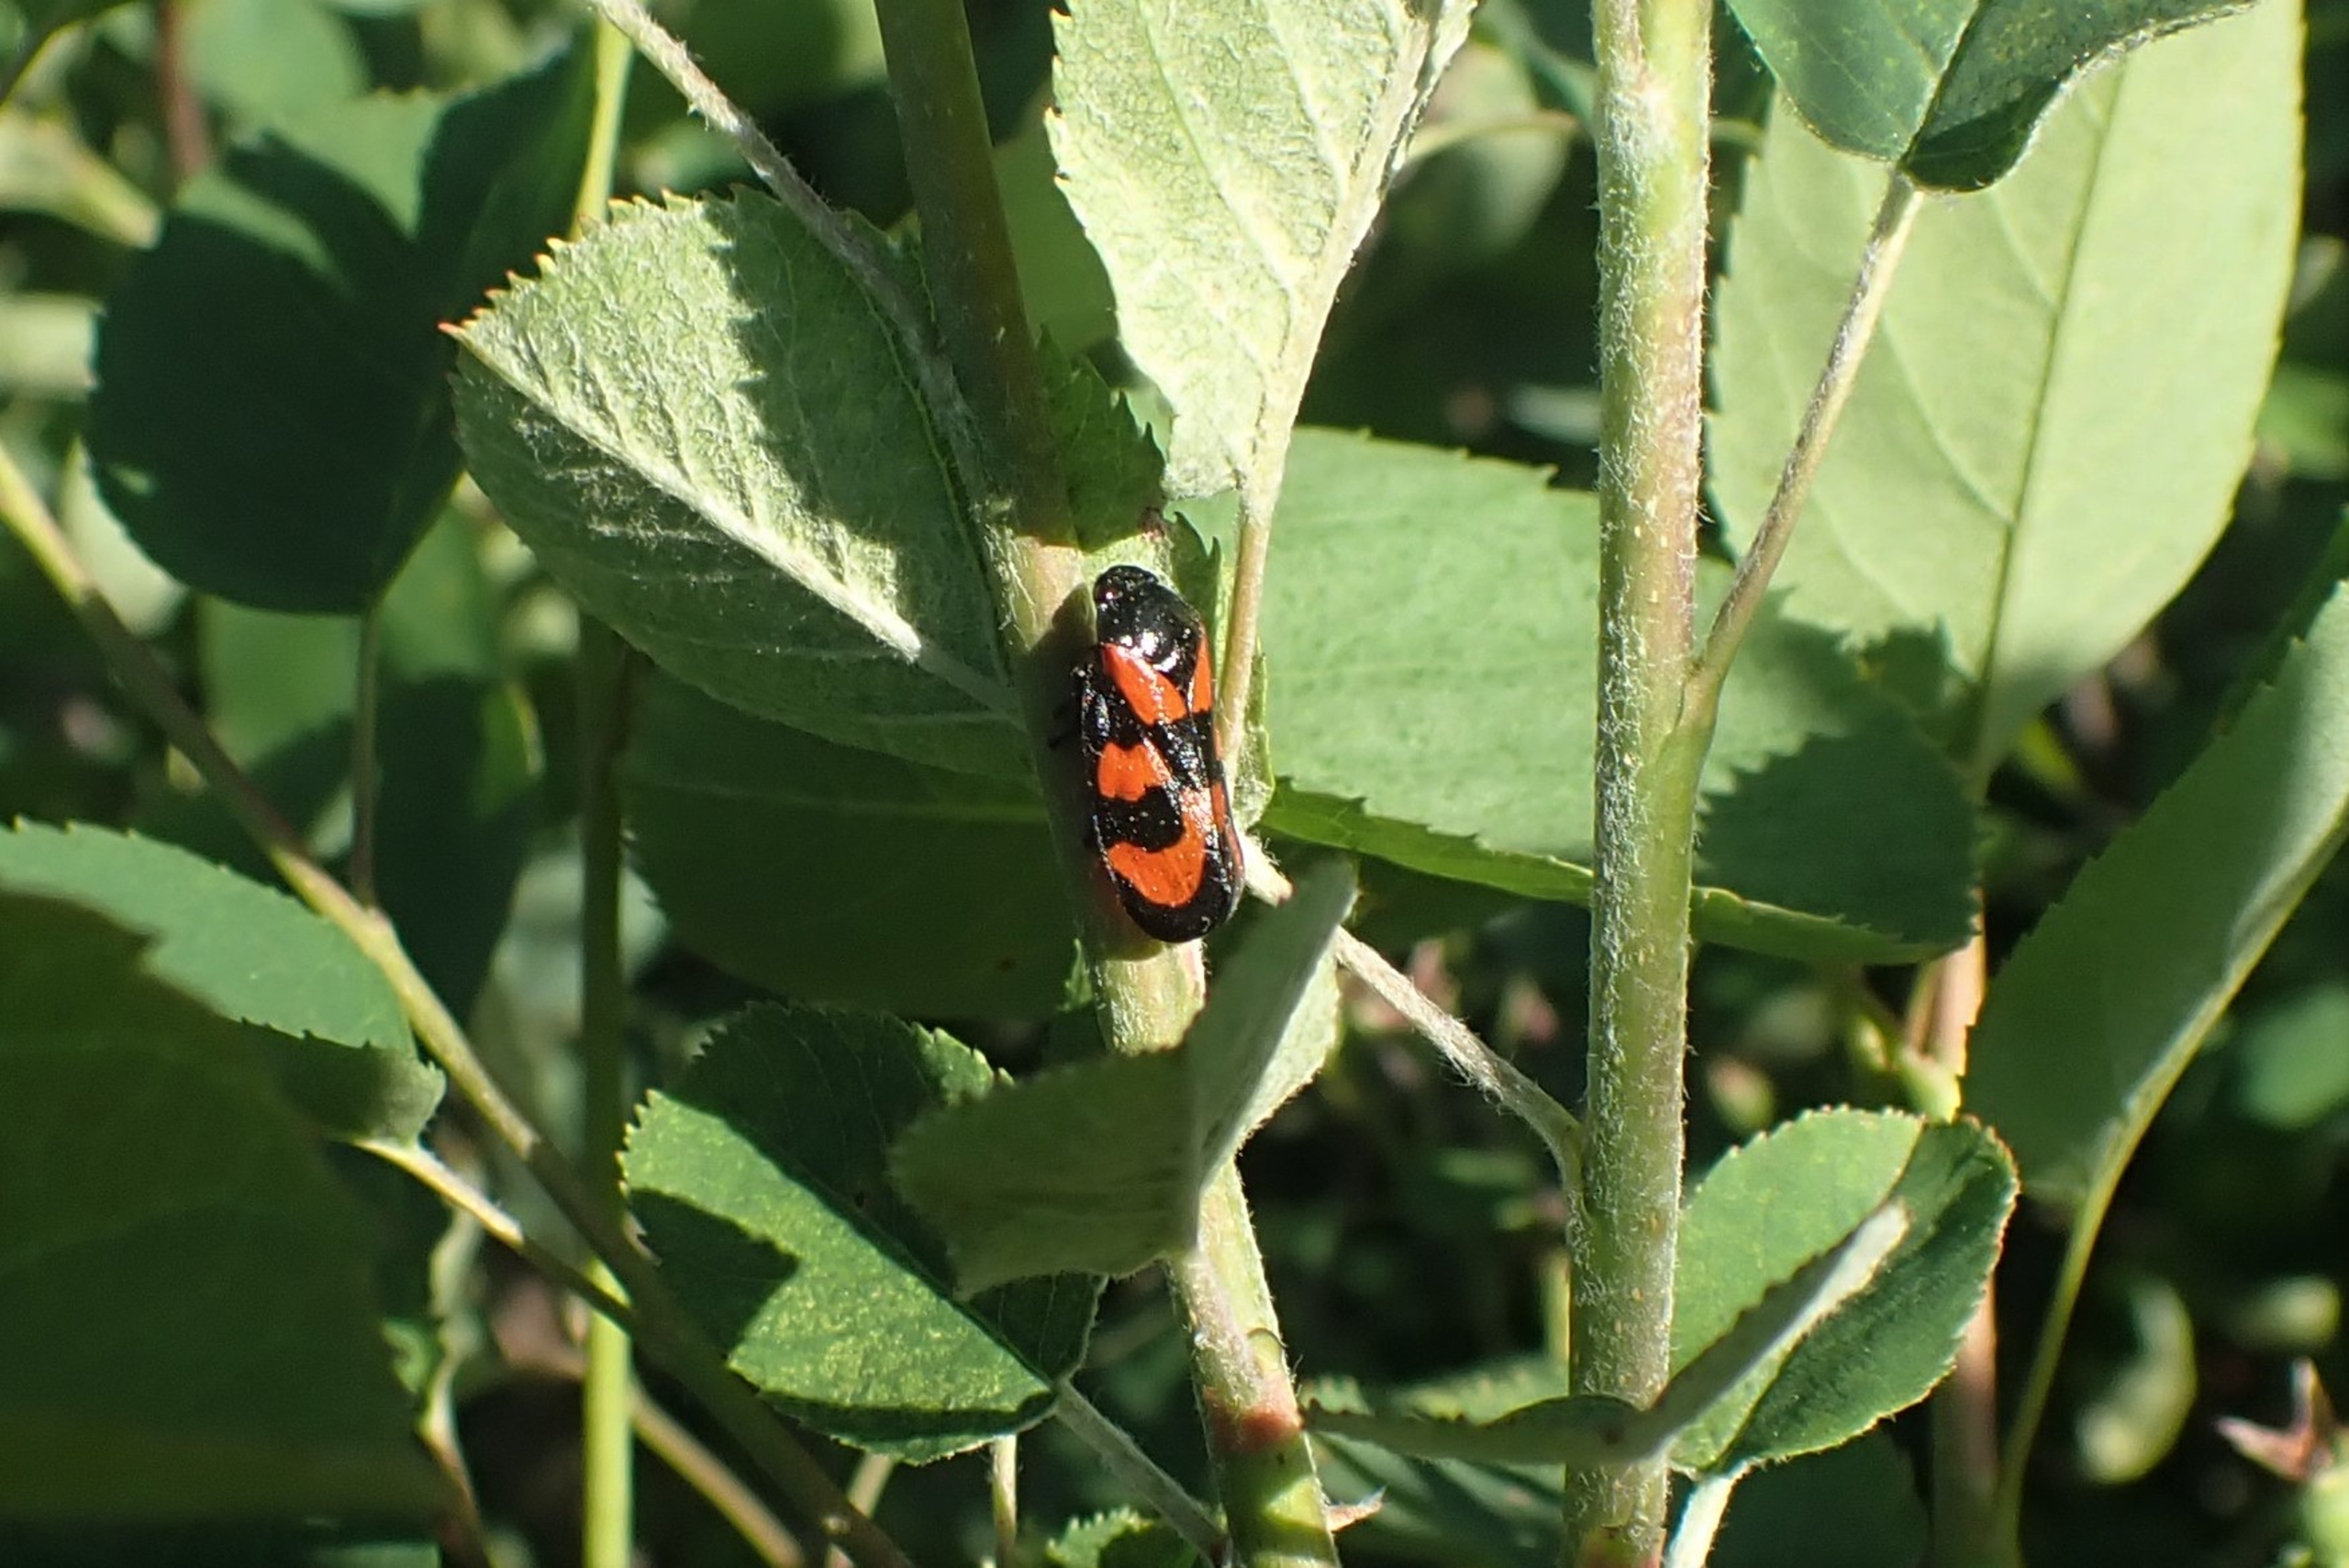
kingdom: Animalia
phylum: Arthropoda
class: Insecta
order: Hemiptera
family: Cercopidae
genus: Cercopis
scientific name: Cercopis vulnerata
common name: Blodcikade
